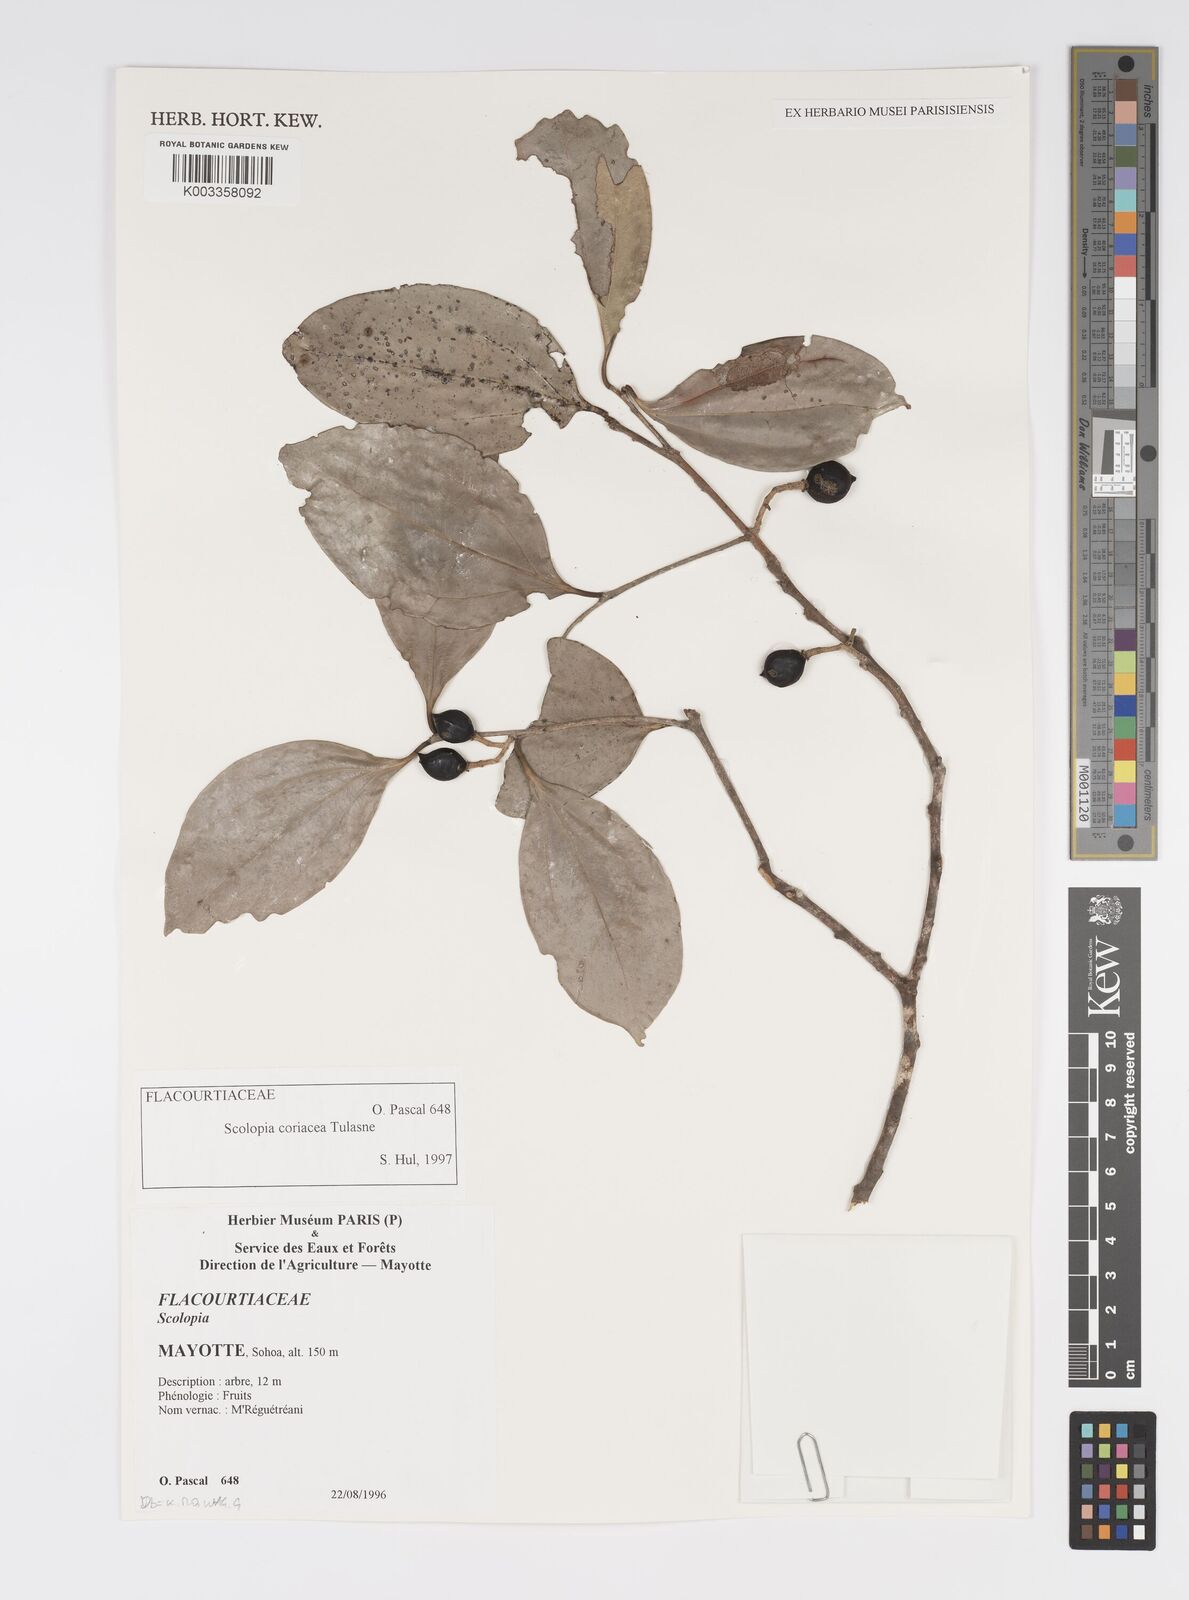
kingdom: Plantae
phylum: Tracheophyta
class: Magnoliopsida
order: Malpighiales
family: Salicaceae
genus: Scolopia
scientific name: Scolopia coriacea
